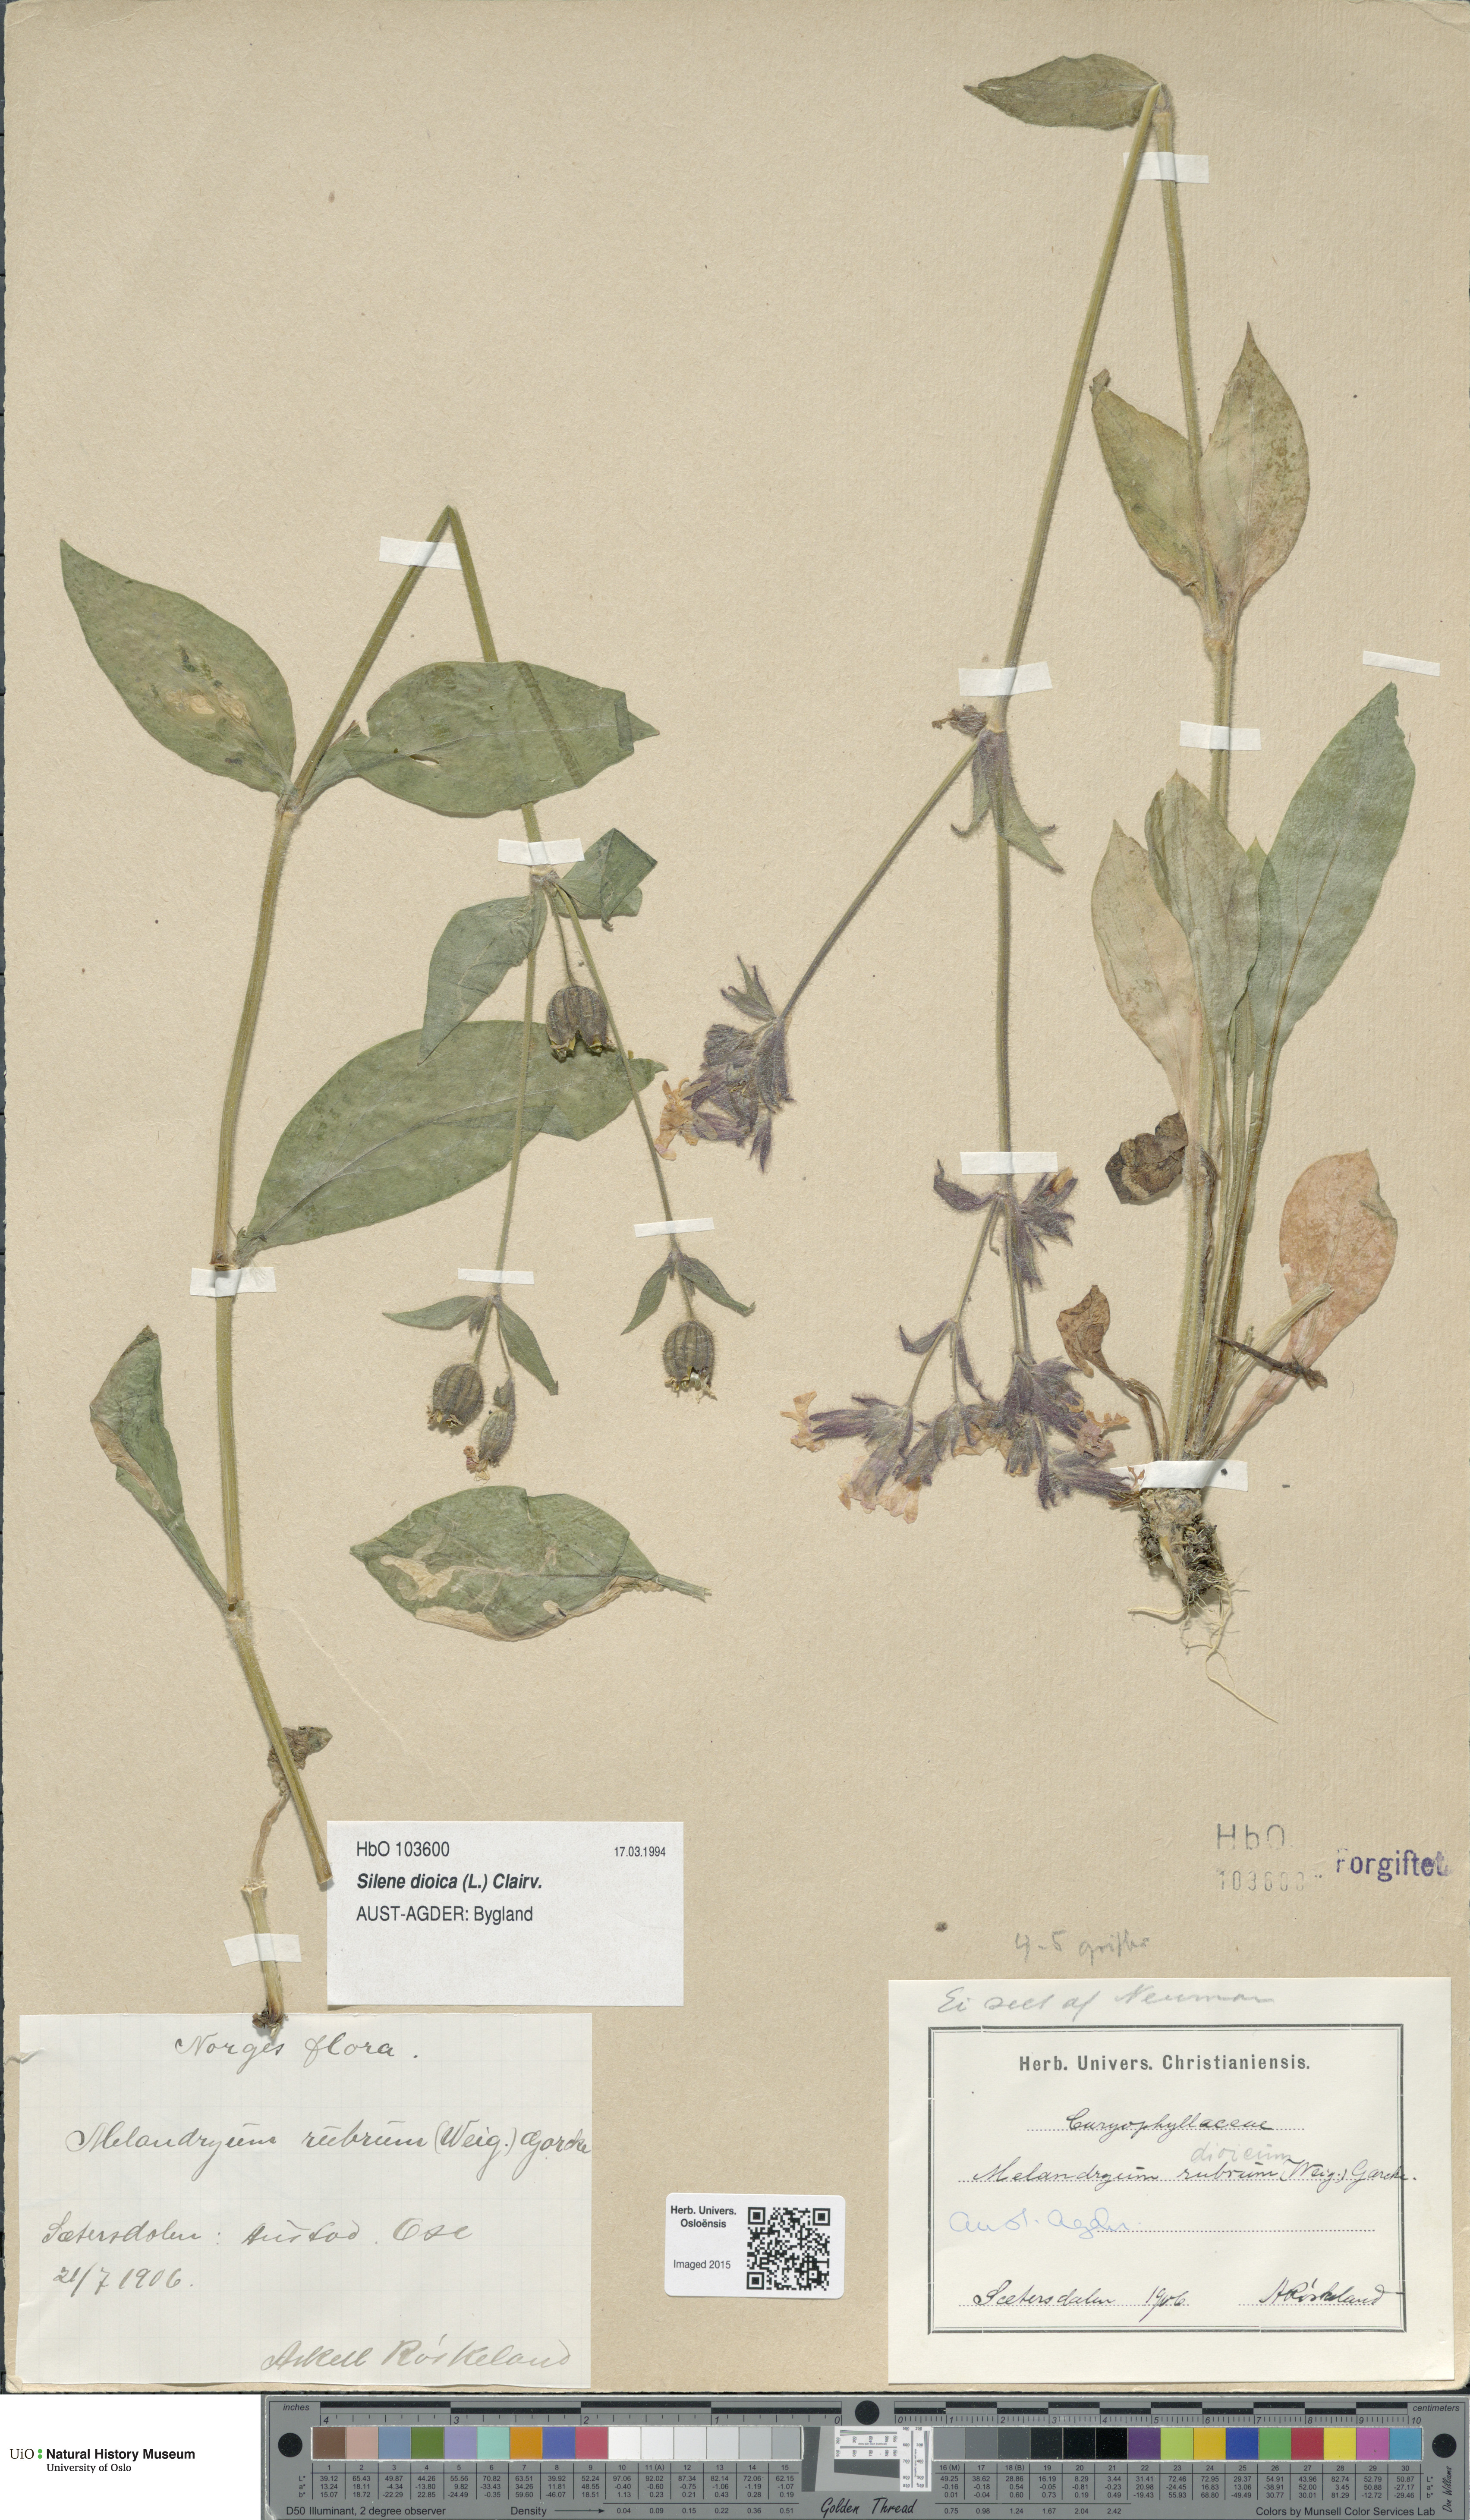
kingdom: Plantae
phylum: Tracheophyta
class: Magnoliopsida
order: Caryophyllales
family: Caryophyllaceae
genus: Silene
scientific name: Silene dioica
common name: Red campion
